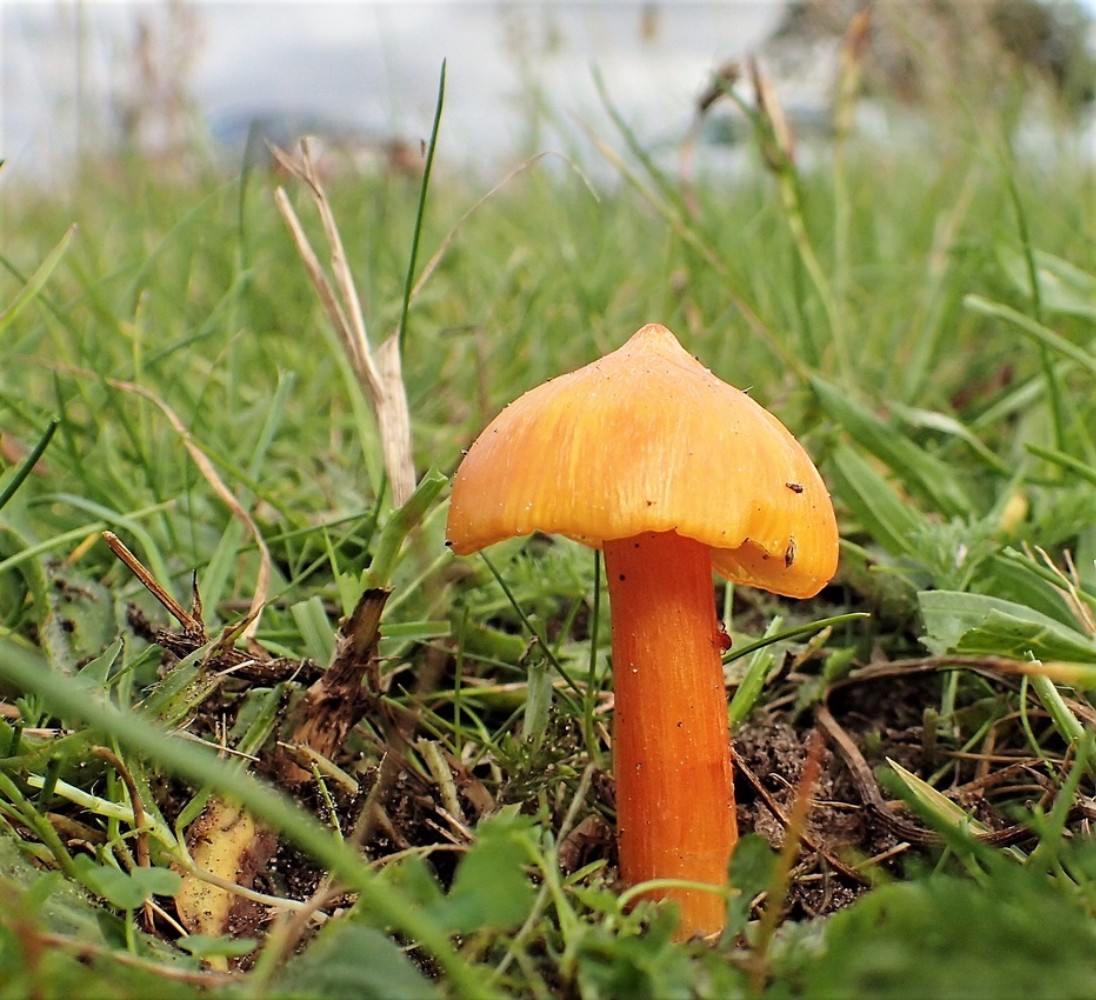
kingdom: Fungi
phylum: Basidiomycota
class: Agaricomycetes
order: Agaricales
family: Hygrophoraceae
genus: Hygrocybe
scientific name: Hygrocybe
